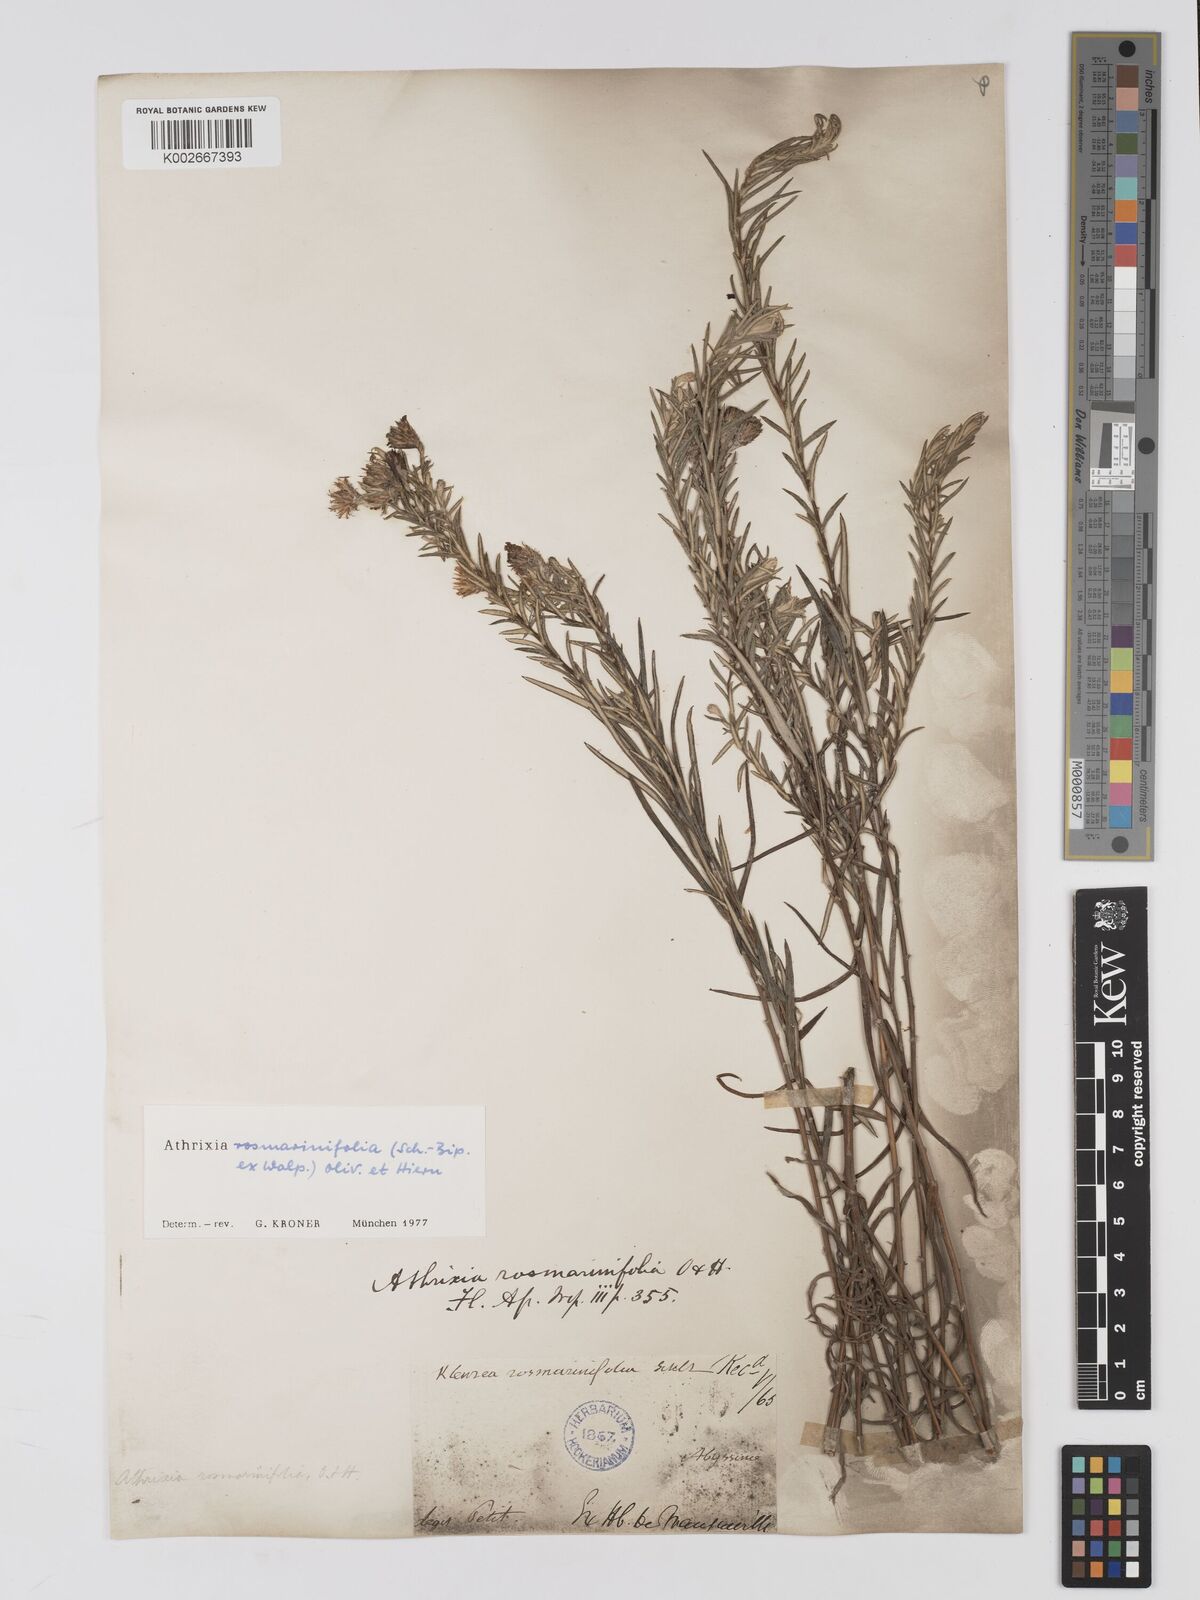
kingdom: Plantae
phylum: Tracheophyta
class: Magnoliopsida
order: Asterales
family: Asteraceae
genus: Athrixia
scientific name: Athrixia rosmarinifolia
